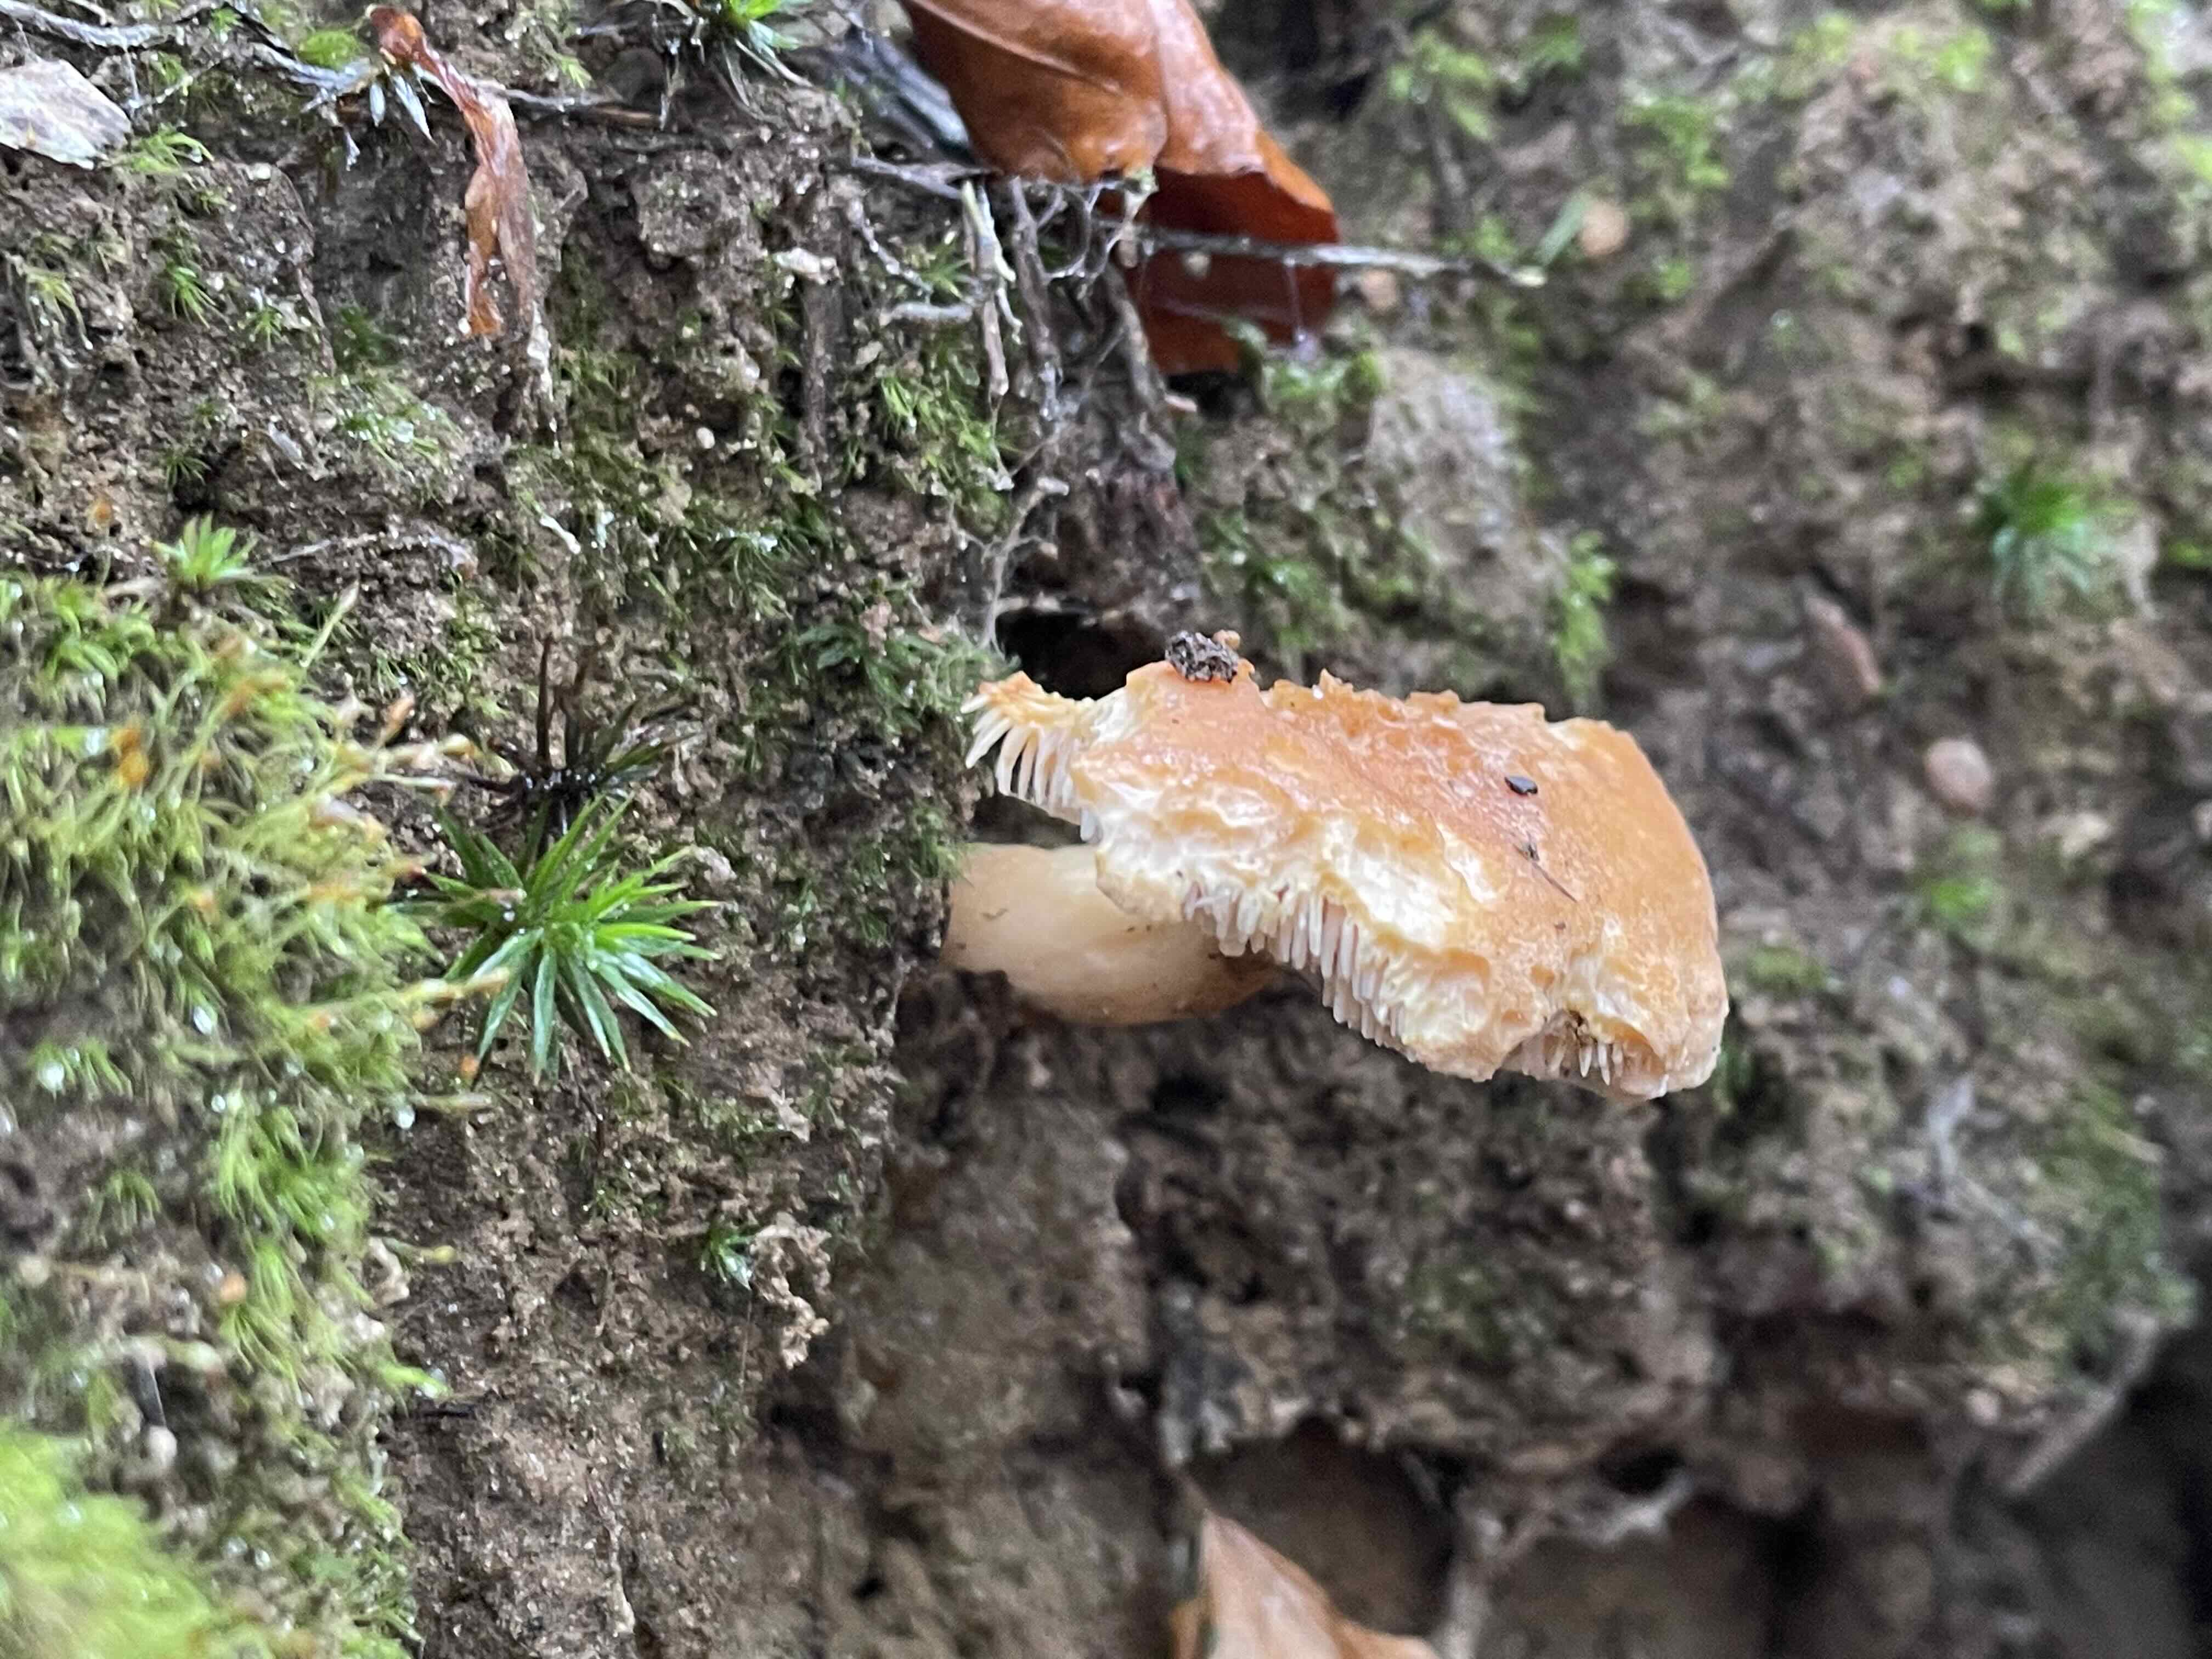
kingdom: Fungi
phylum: Basidiomycota
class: Agaricomycetes
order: Cantharellales
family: Hydnaceae
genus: Hydnum
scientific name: Hydnum rufescens
